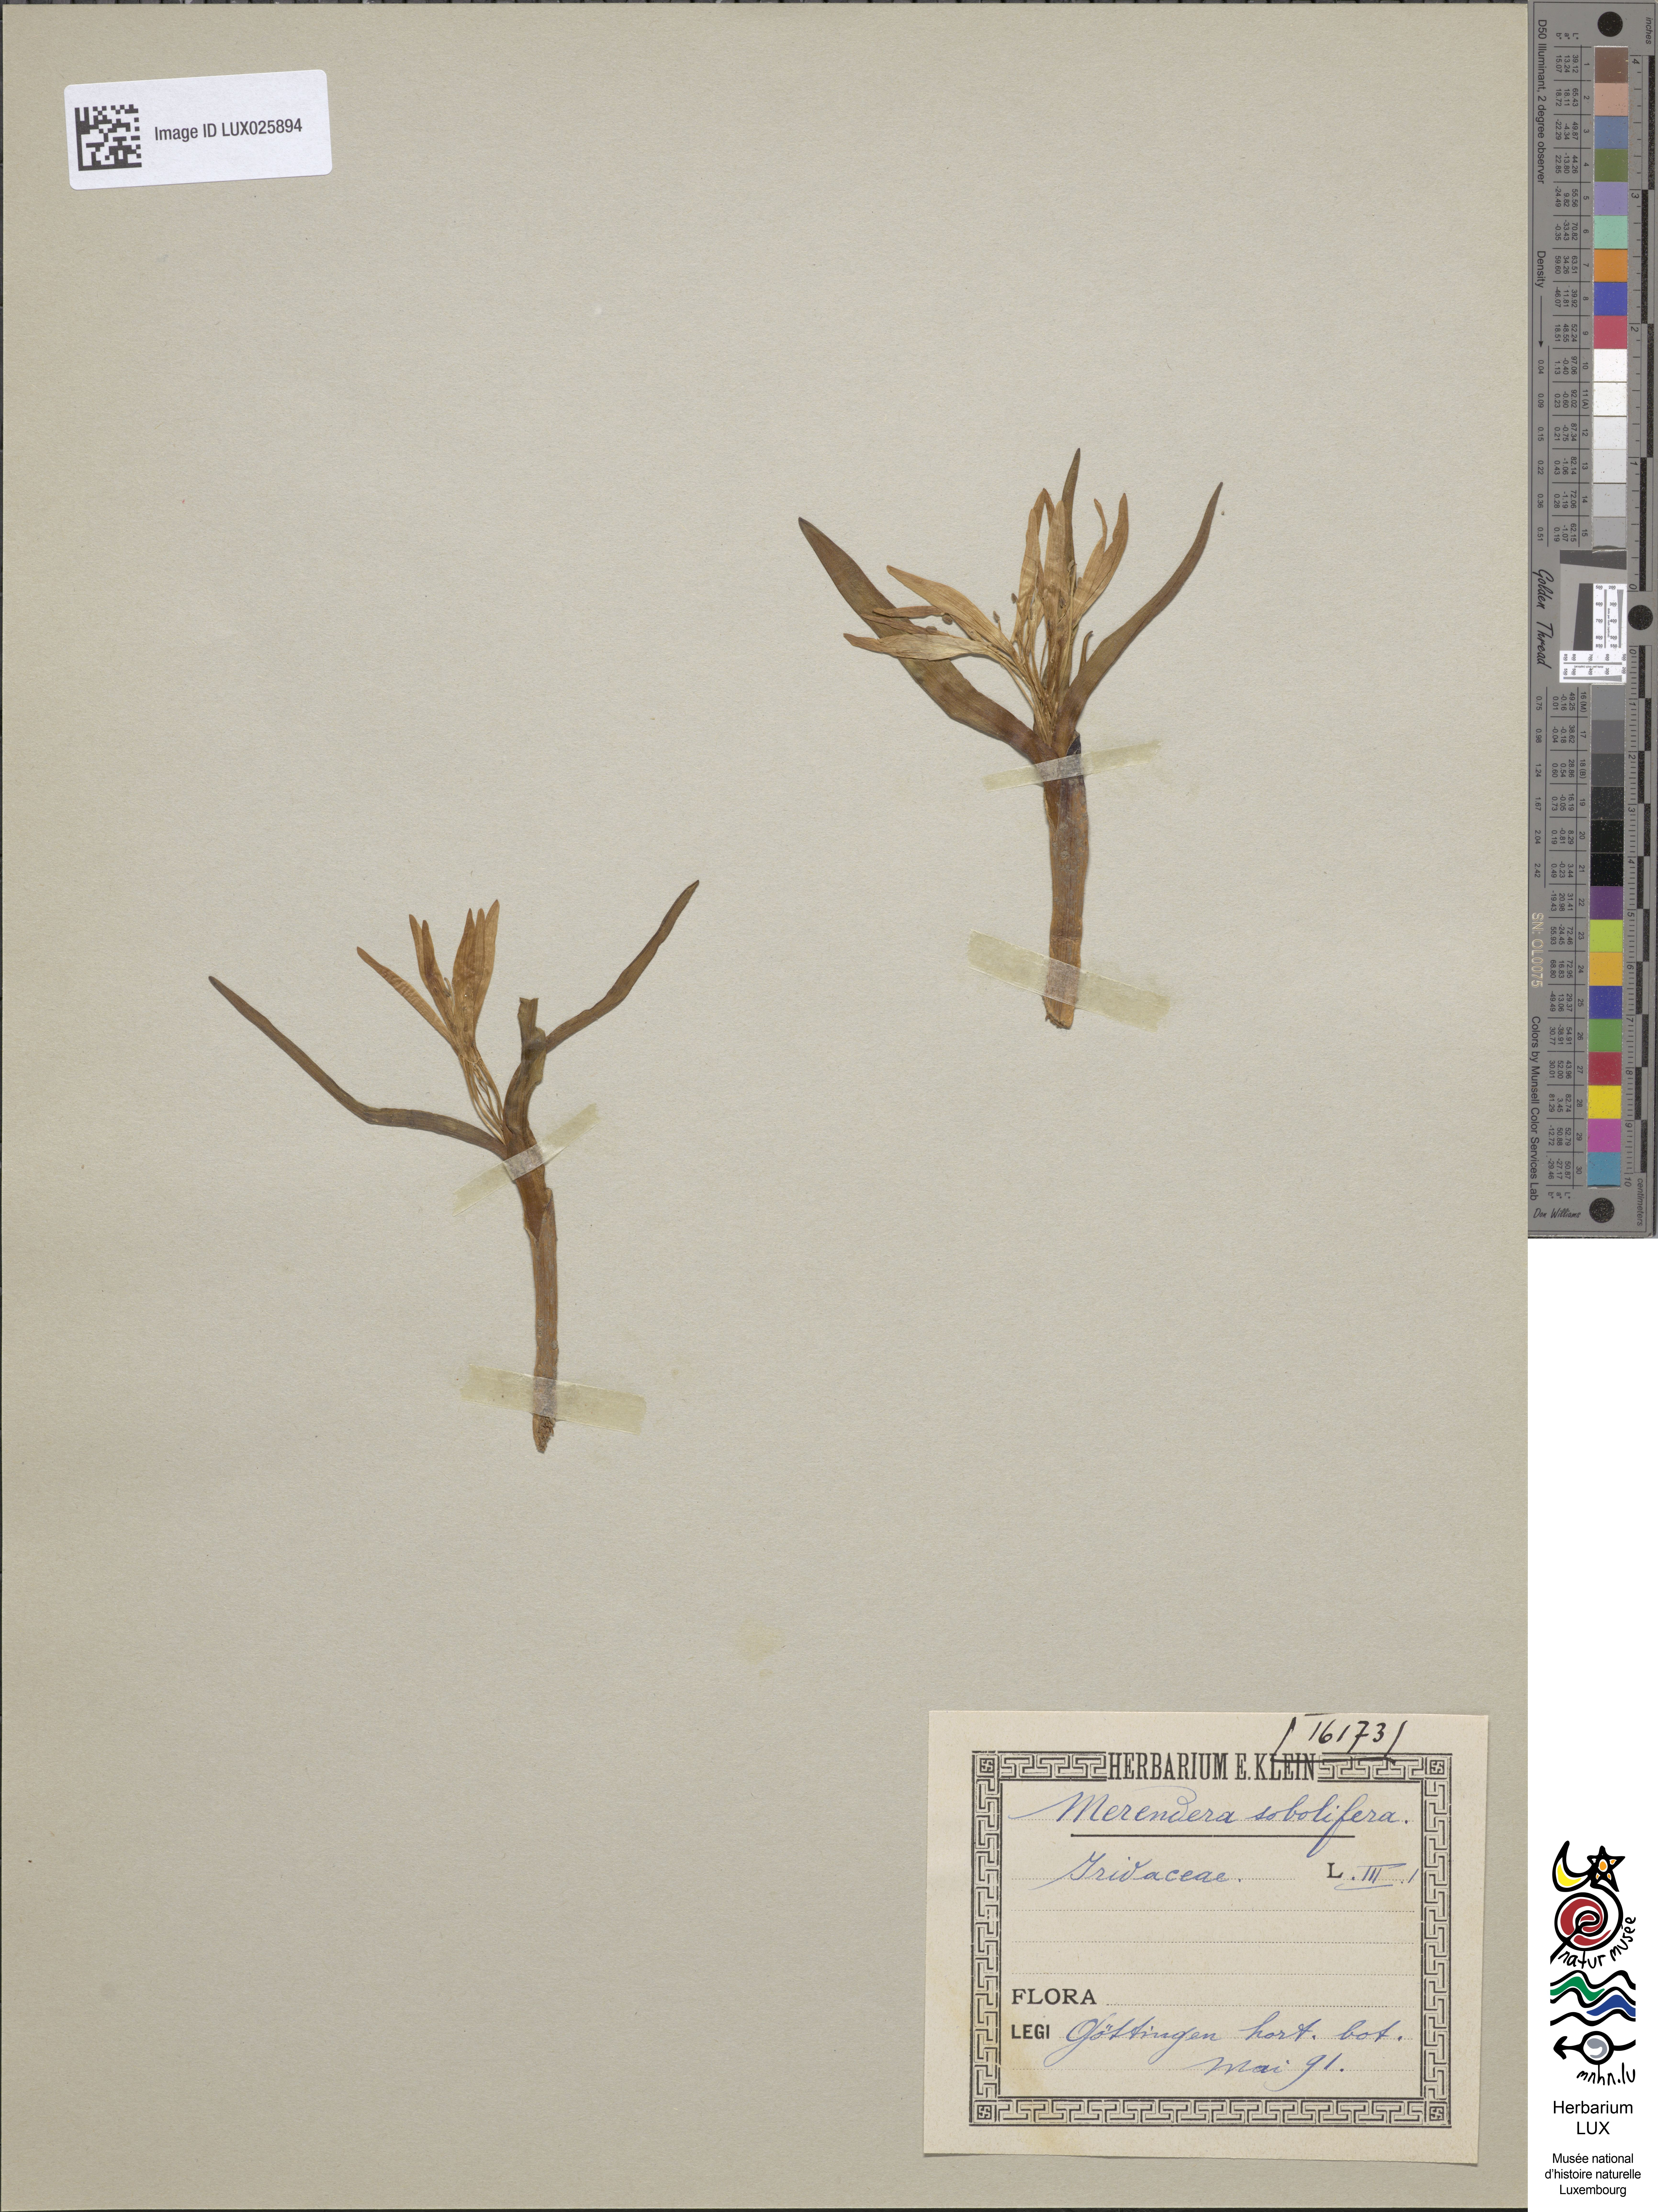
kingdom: Plantae
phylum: Tracheophyta
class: Liliopsida
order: Liliales
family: Colchicaceae
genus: Colchicum
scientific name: Colchicum soboliferum
